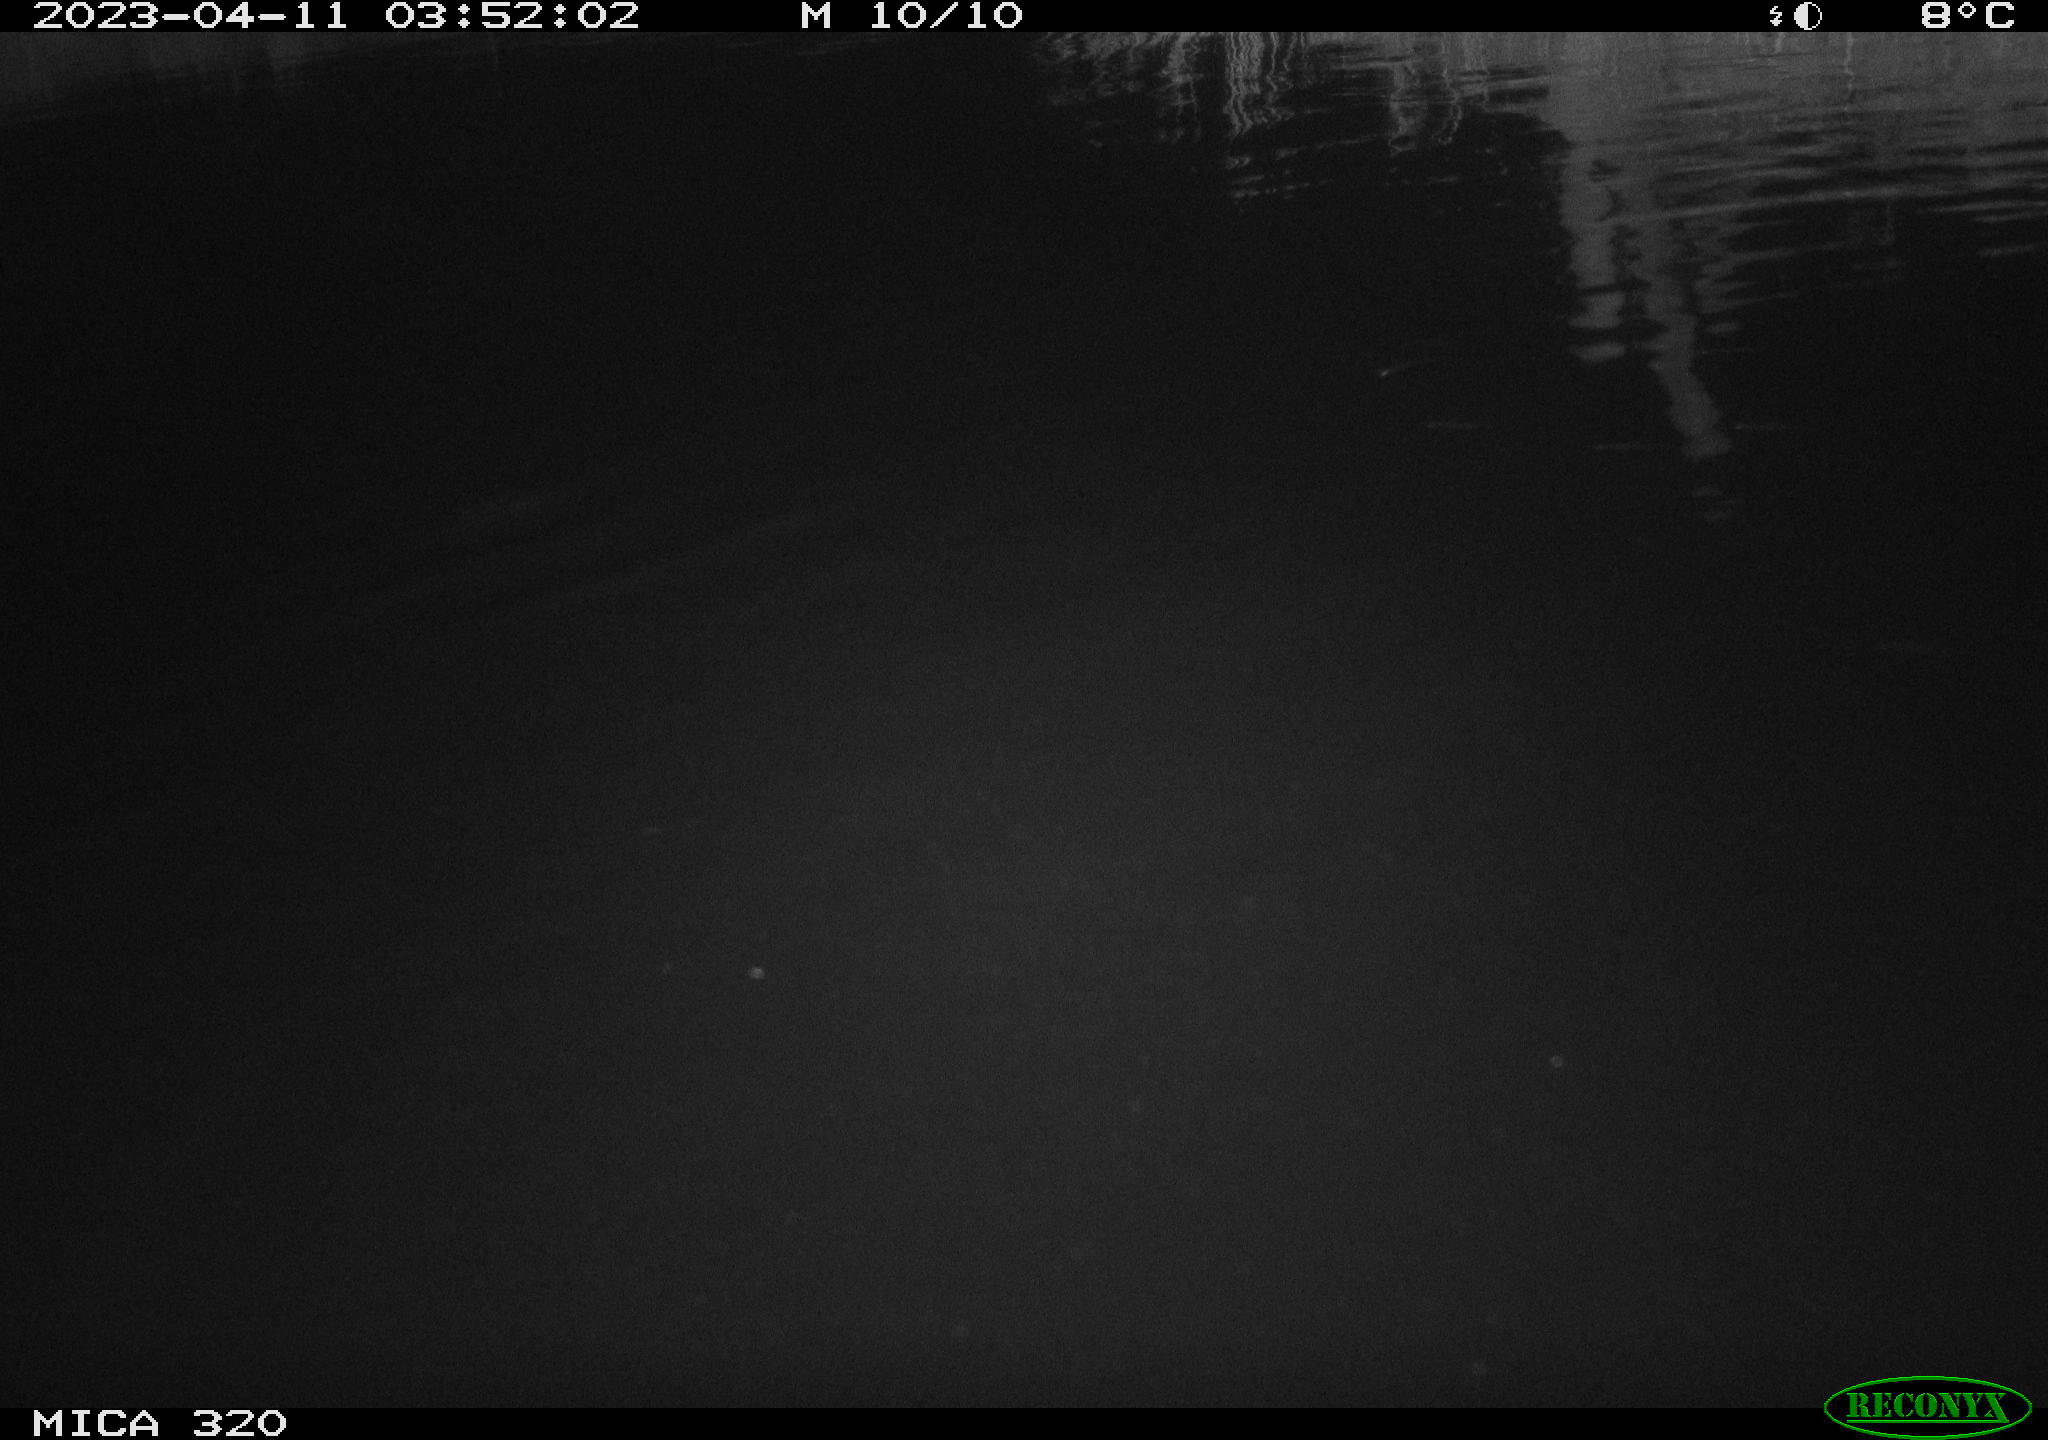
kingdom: Animalia
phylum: Chordata
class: Aves
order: Anseriformes
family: Anatidae
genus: Anas
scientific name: Anas
